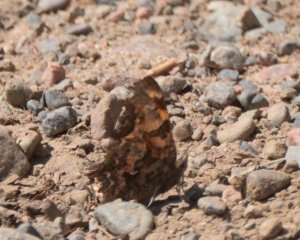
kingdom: Animalia
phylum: Arthropoda
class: Insecta
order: Lepidoptera
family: Nymphalidae
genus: Polygonia
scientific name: Polygonia faunus
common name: Green Comma
